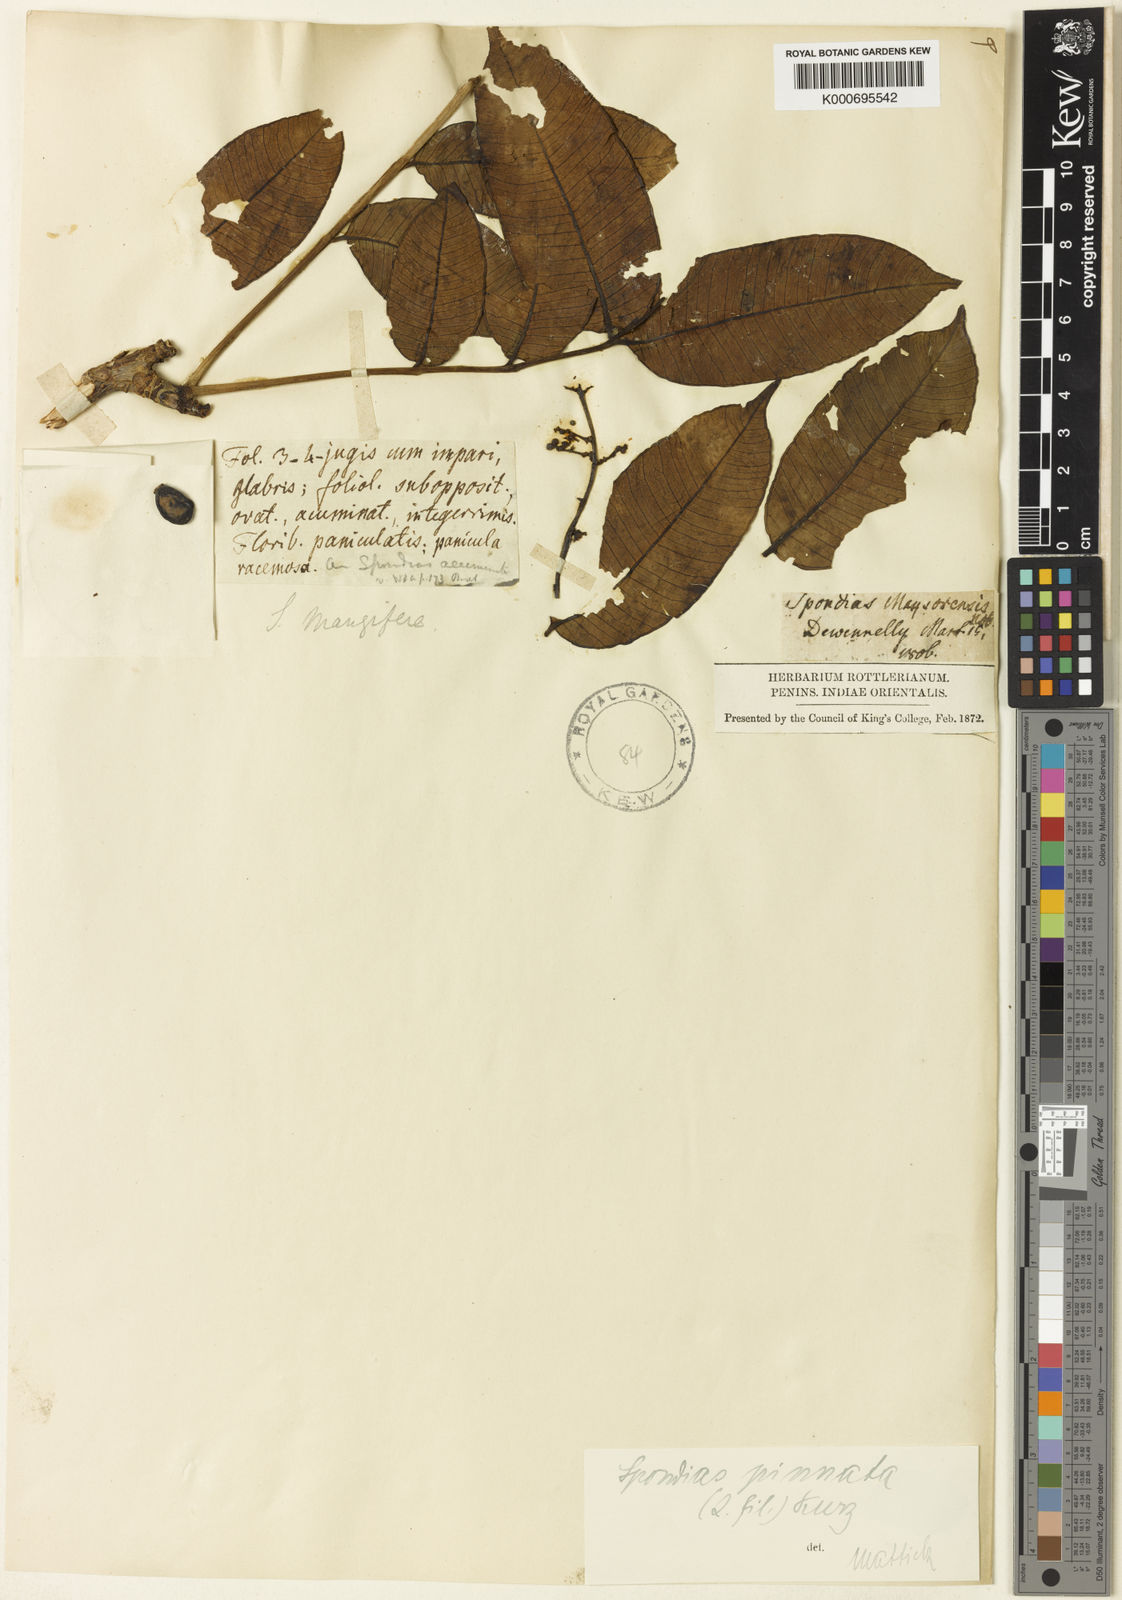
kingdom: Plantae
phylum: Tracheophyta
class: Magnoliopsida
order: Sapindales
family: Anacardiaceae
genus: Spondias
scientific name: Spondias pinnata
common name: Common hog-plum
